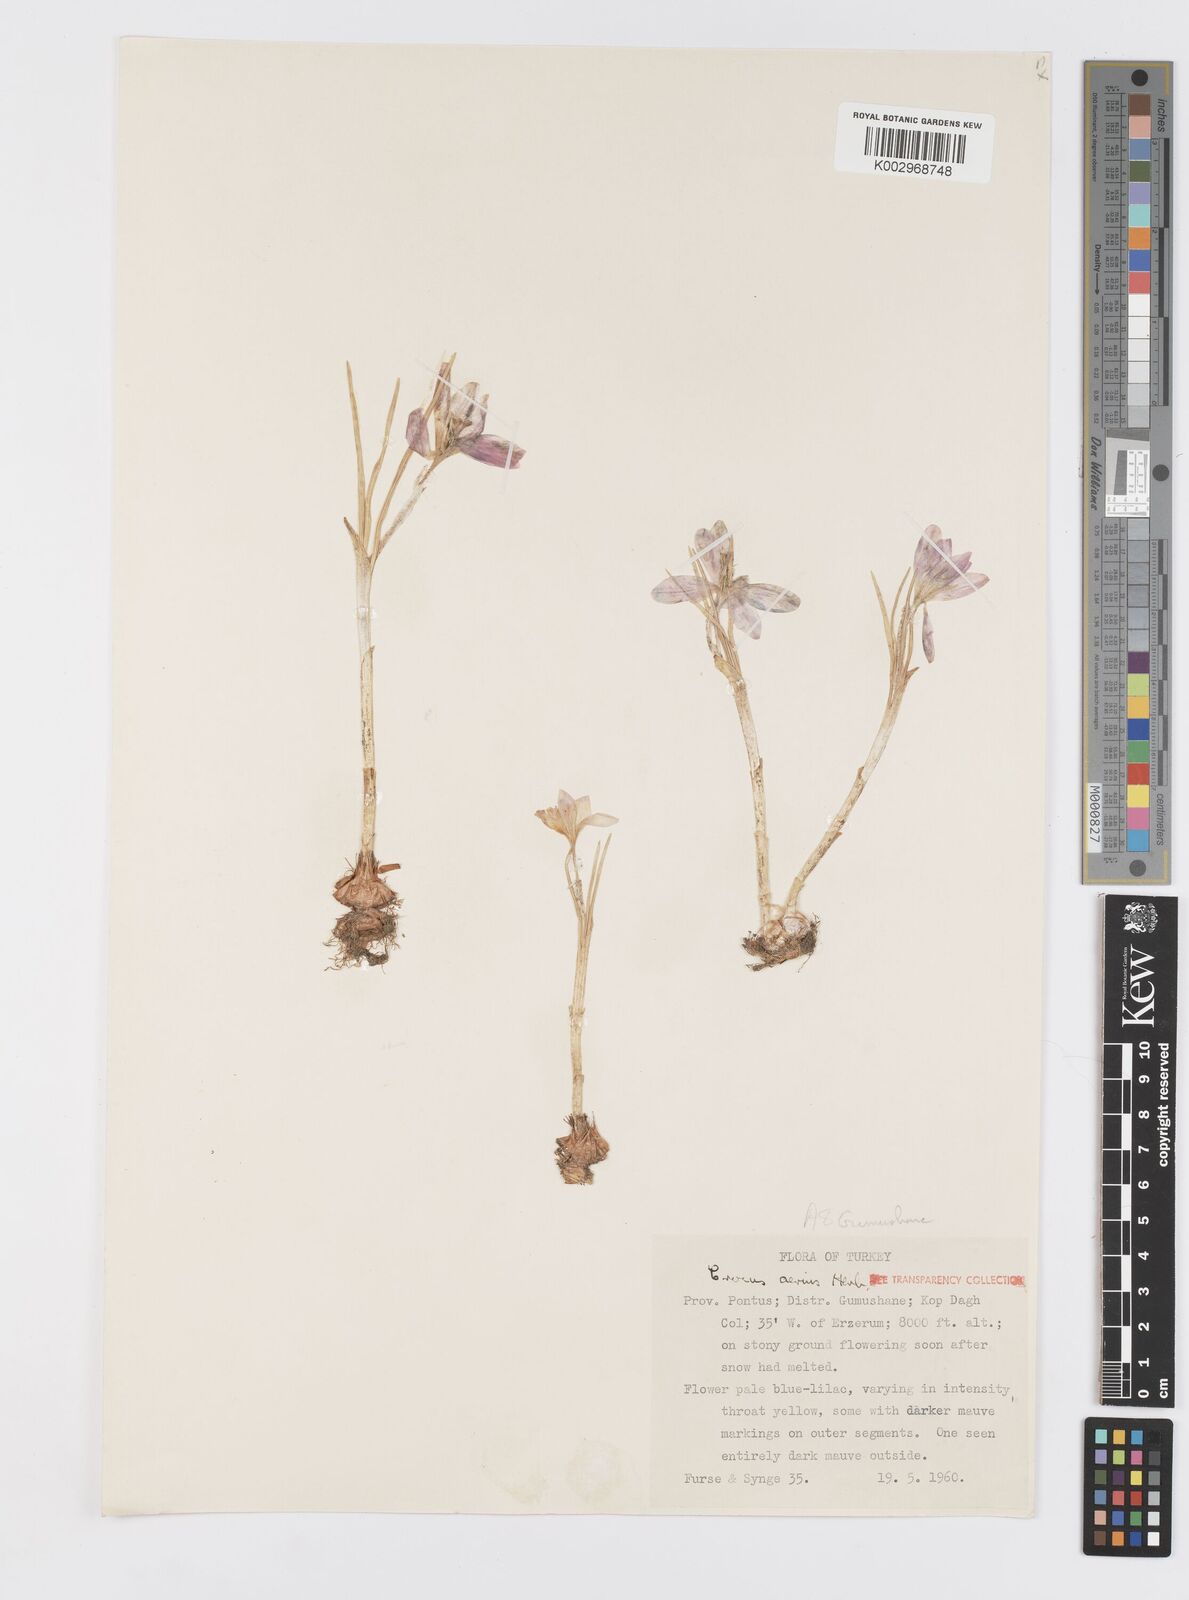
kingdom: Plantae
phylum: Tracheophyta
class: Liliopsida
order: Asparagales
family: Iridaceae
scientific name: Iridaceae
